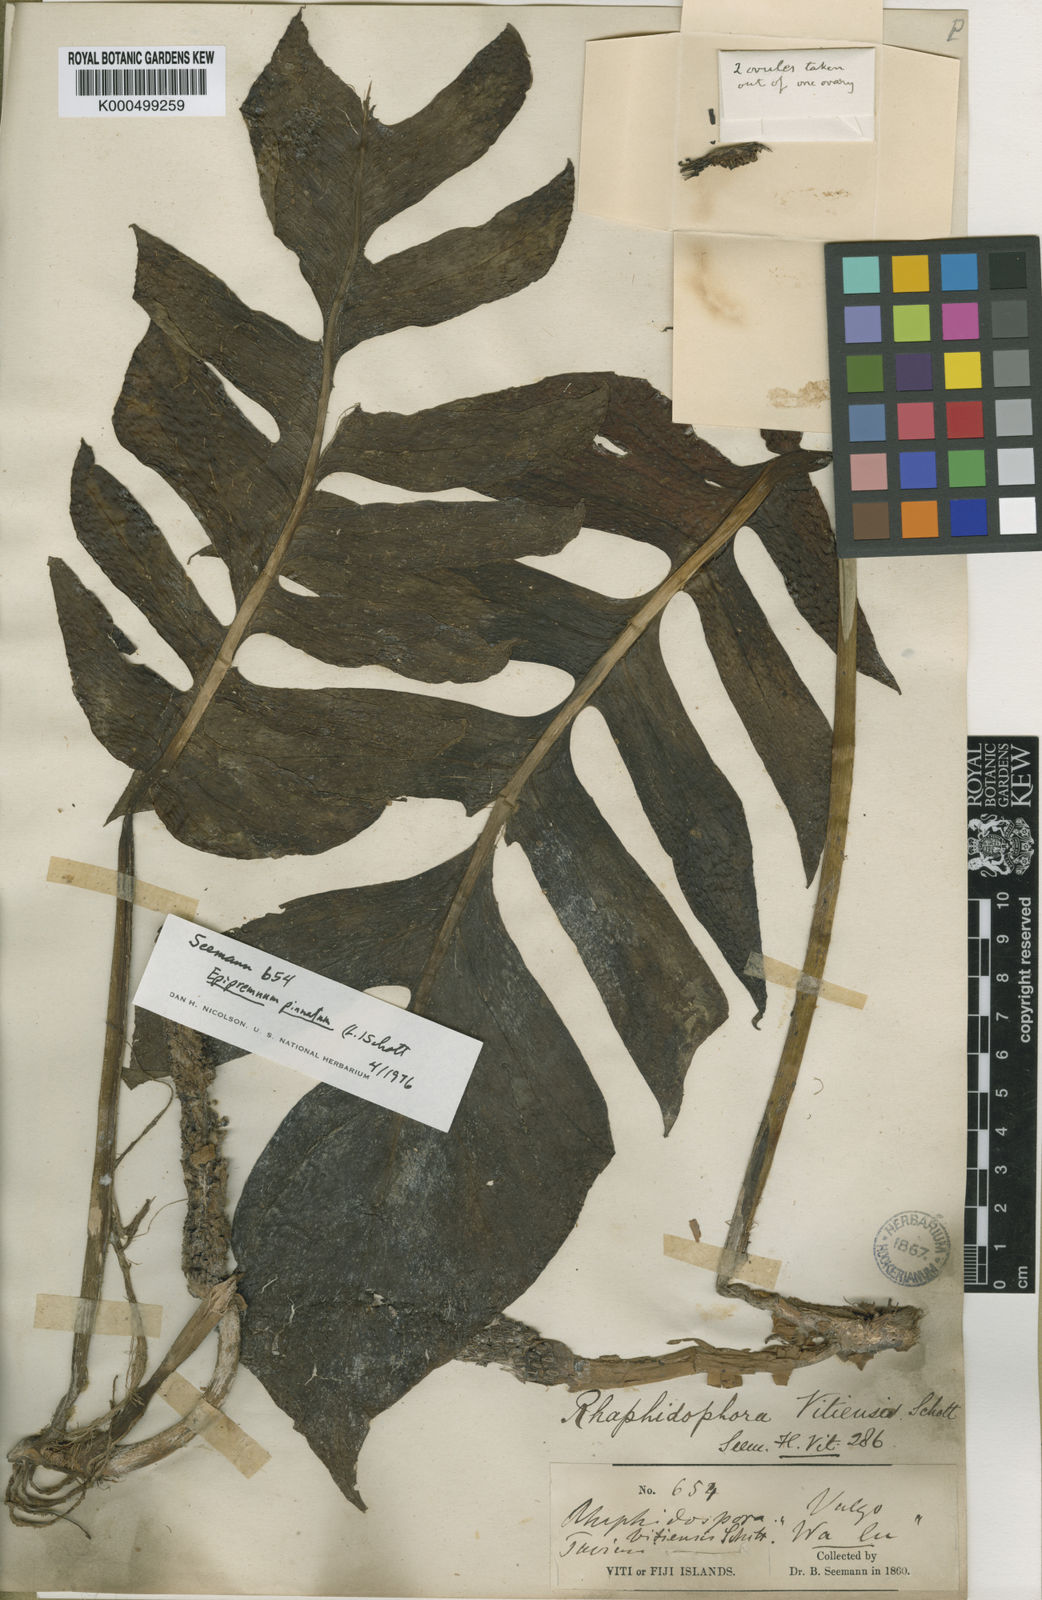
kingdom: Plantae
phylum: Tracheophyta
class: Liliopsida
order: Alismatales
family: Araceae
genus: Epipremnum
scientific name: Epipremnum
